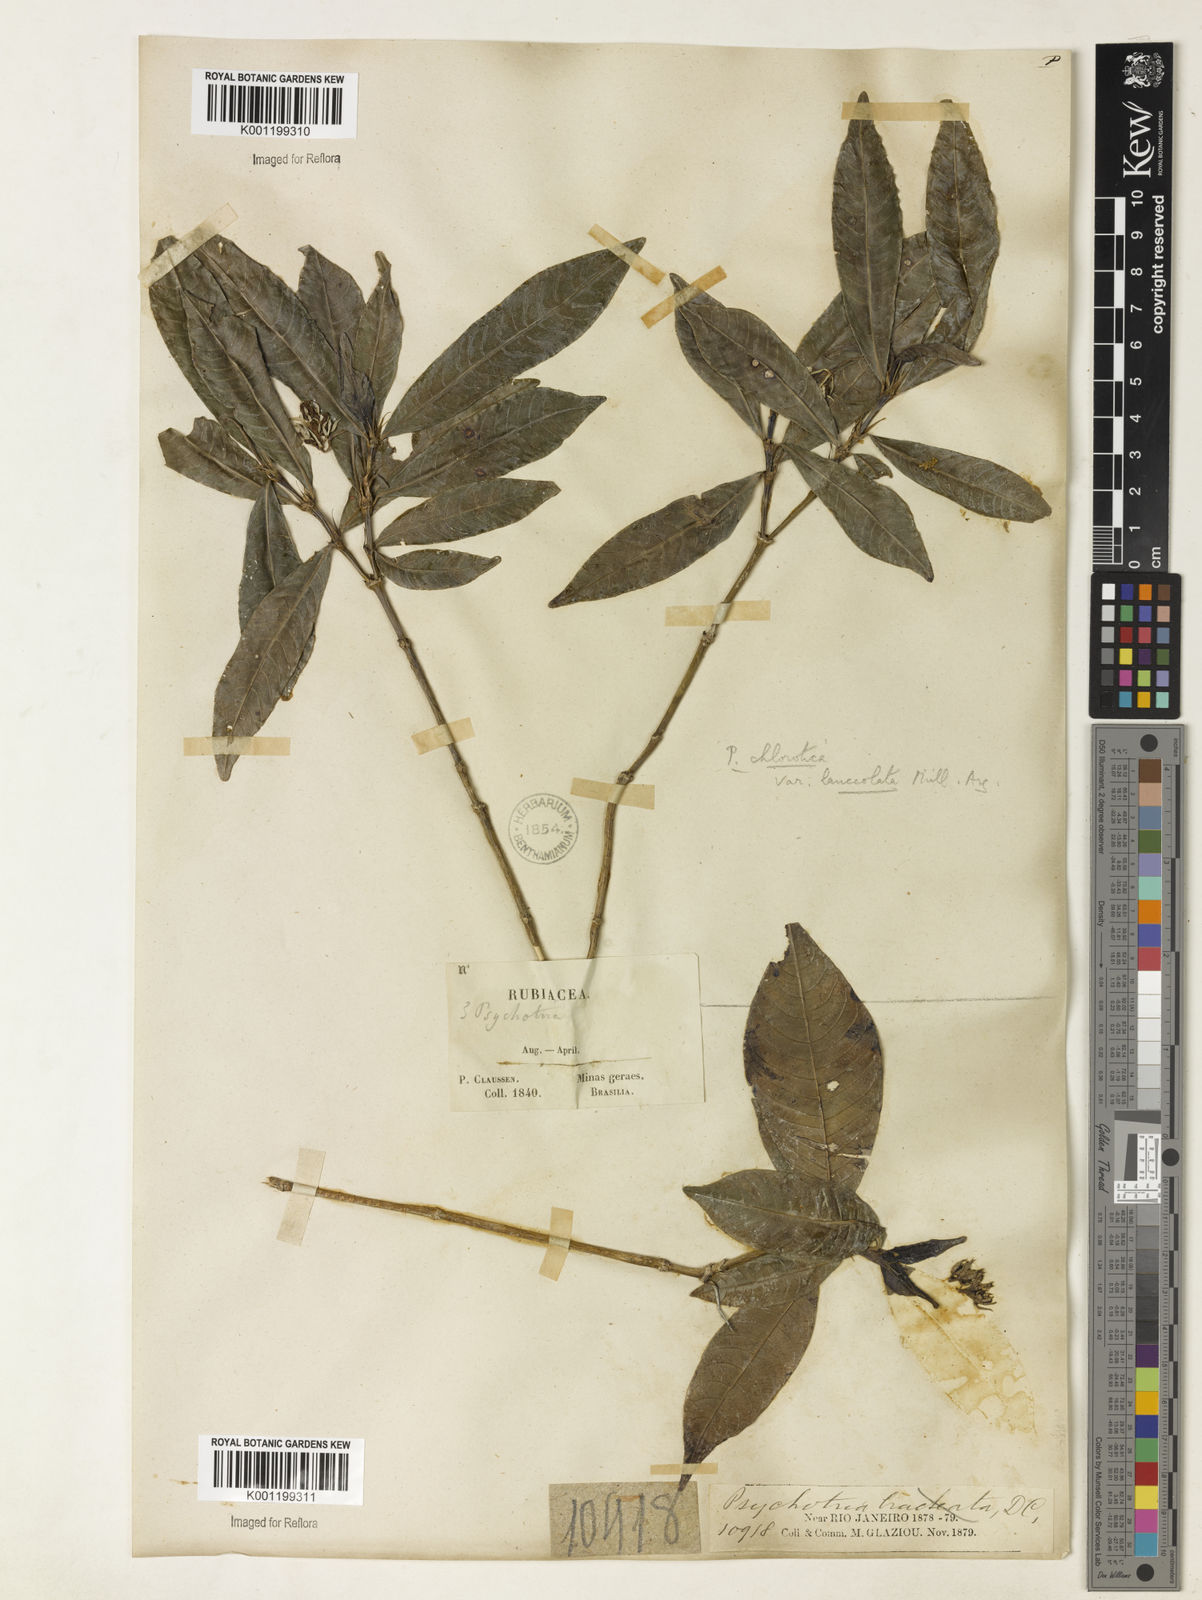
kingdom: Plantae
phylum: Tracheophyta
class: Magnoliopsida
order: Gentianales
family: Rubiaceae
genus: Palicourea
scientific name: Palicourea violacea
